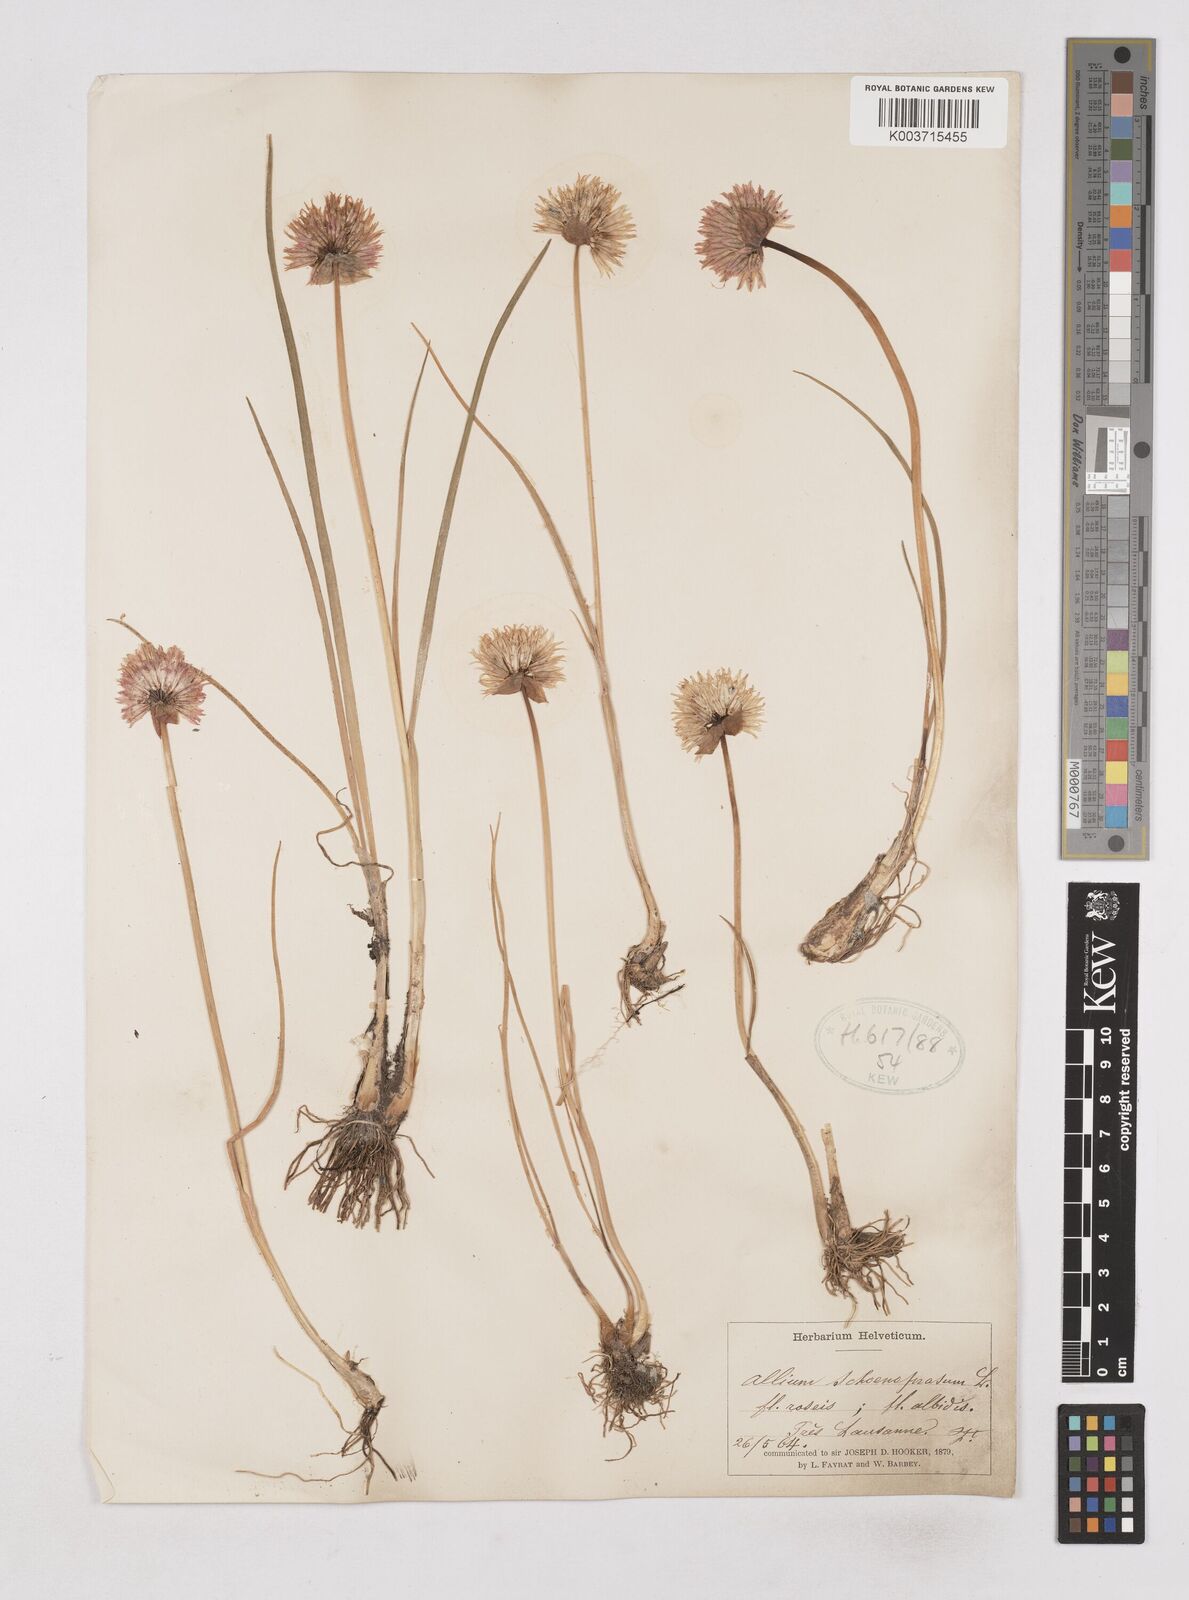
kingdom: Plantae
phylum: Tracheophyta
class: Liliopsida
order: Asparagales
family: Amaryllidaceae
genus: Allium
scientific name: Allium schoenoprasum
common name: Chives
